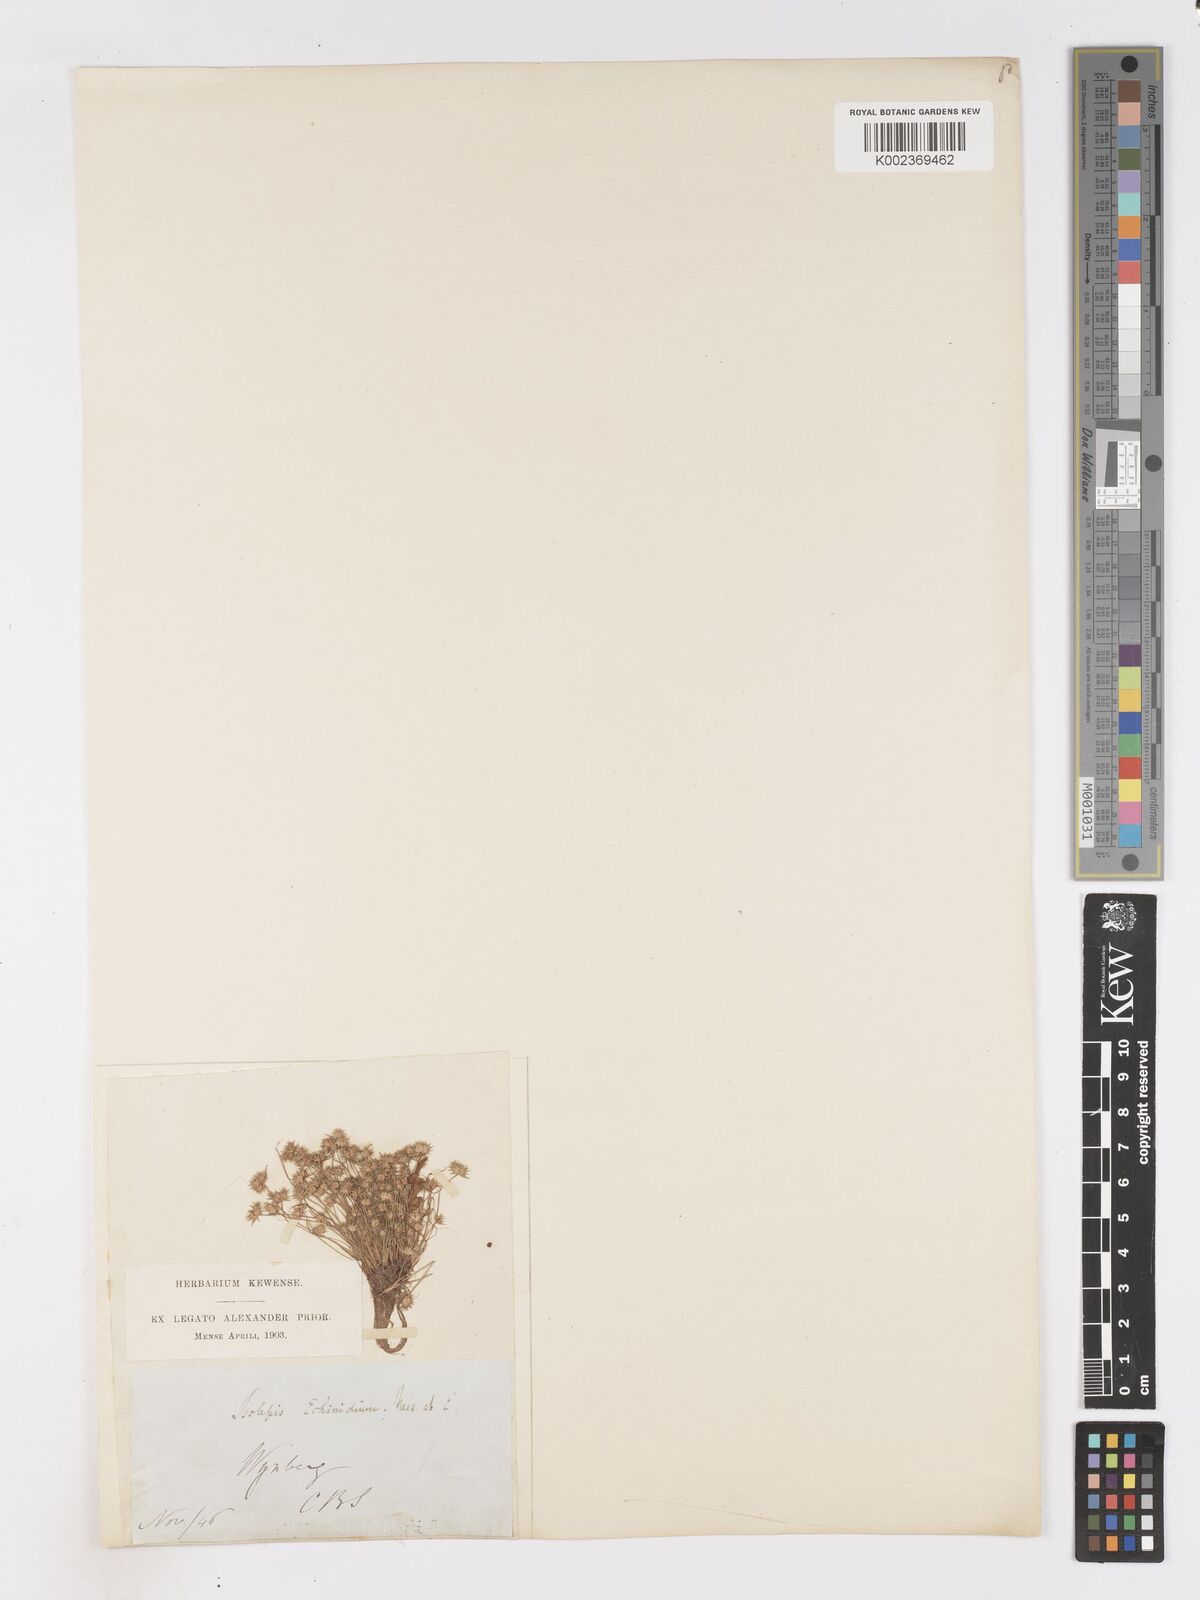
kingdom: Plantae
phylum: Tracheophyta
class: Liliopsida
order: Poales
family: Cyperaceae
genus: Isolepis
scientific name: Isolepis hystrix
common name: Bottlebrush bulrush
